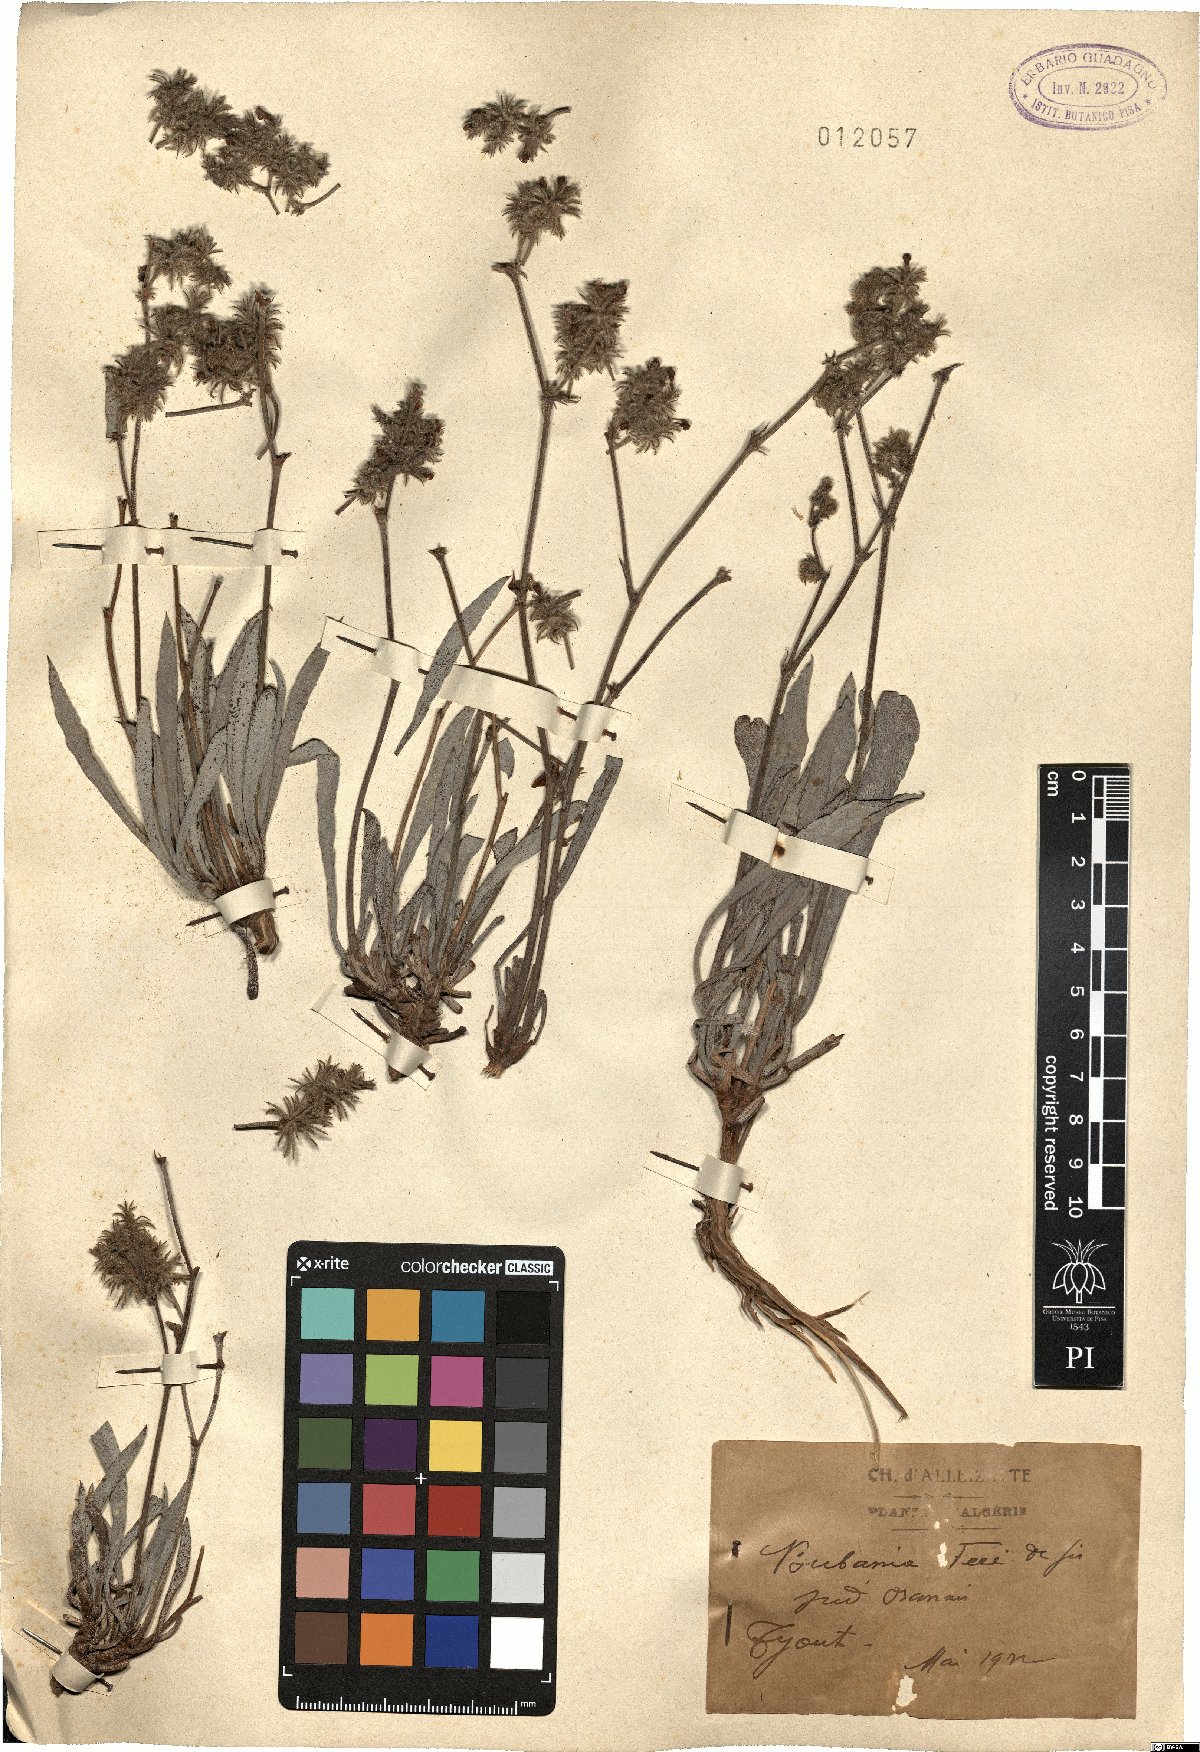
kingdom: Plantae
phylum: Tracheophyta
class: Magnoliopsida
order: Caryophyllales
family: Plumbaginaceae
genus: Ceratolimon
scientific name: Ceratolimon feei
